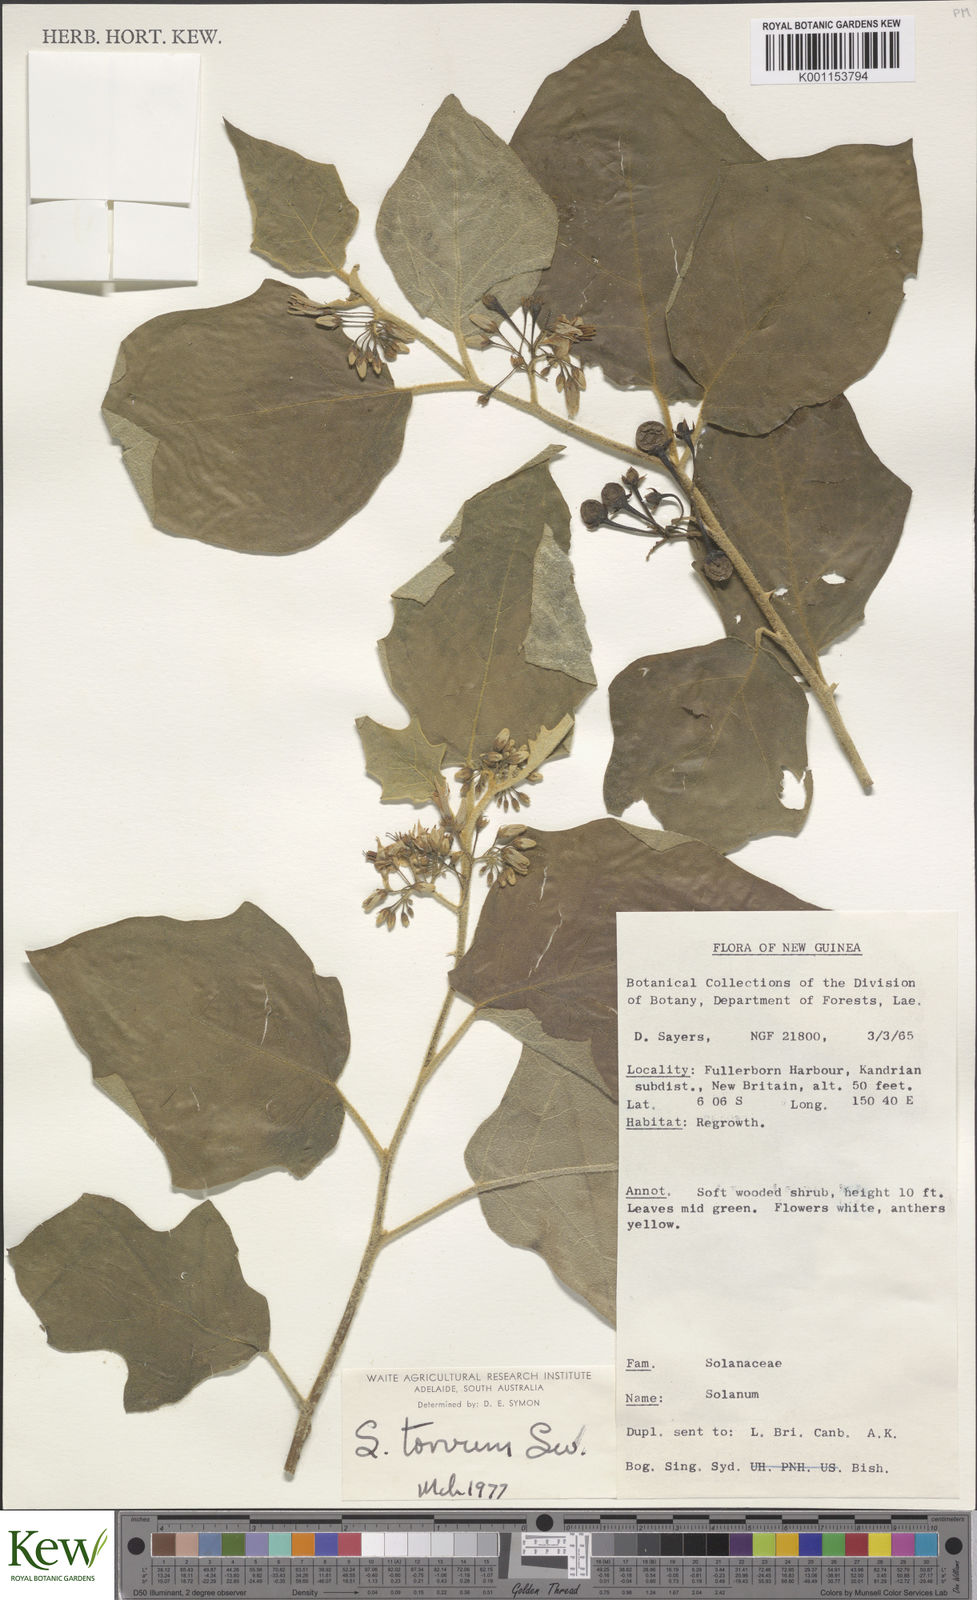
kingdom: Plantae
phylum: Tracheophyta
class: Magnoliopsida
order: Solanales
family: Solanaceae
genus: Solanum
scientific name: Solanum torvum
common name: Turkey berry
